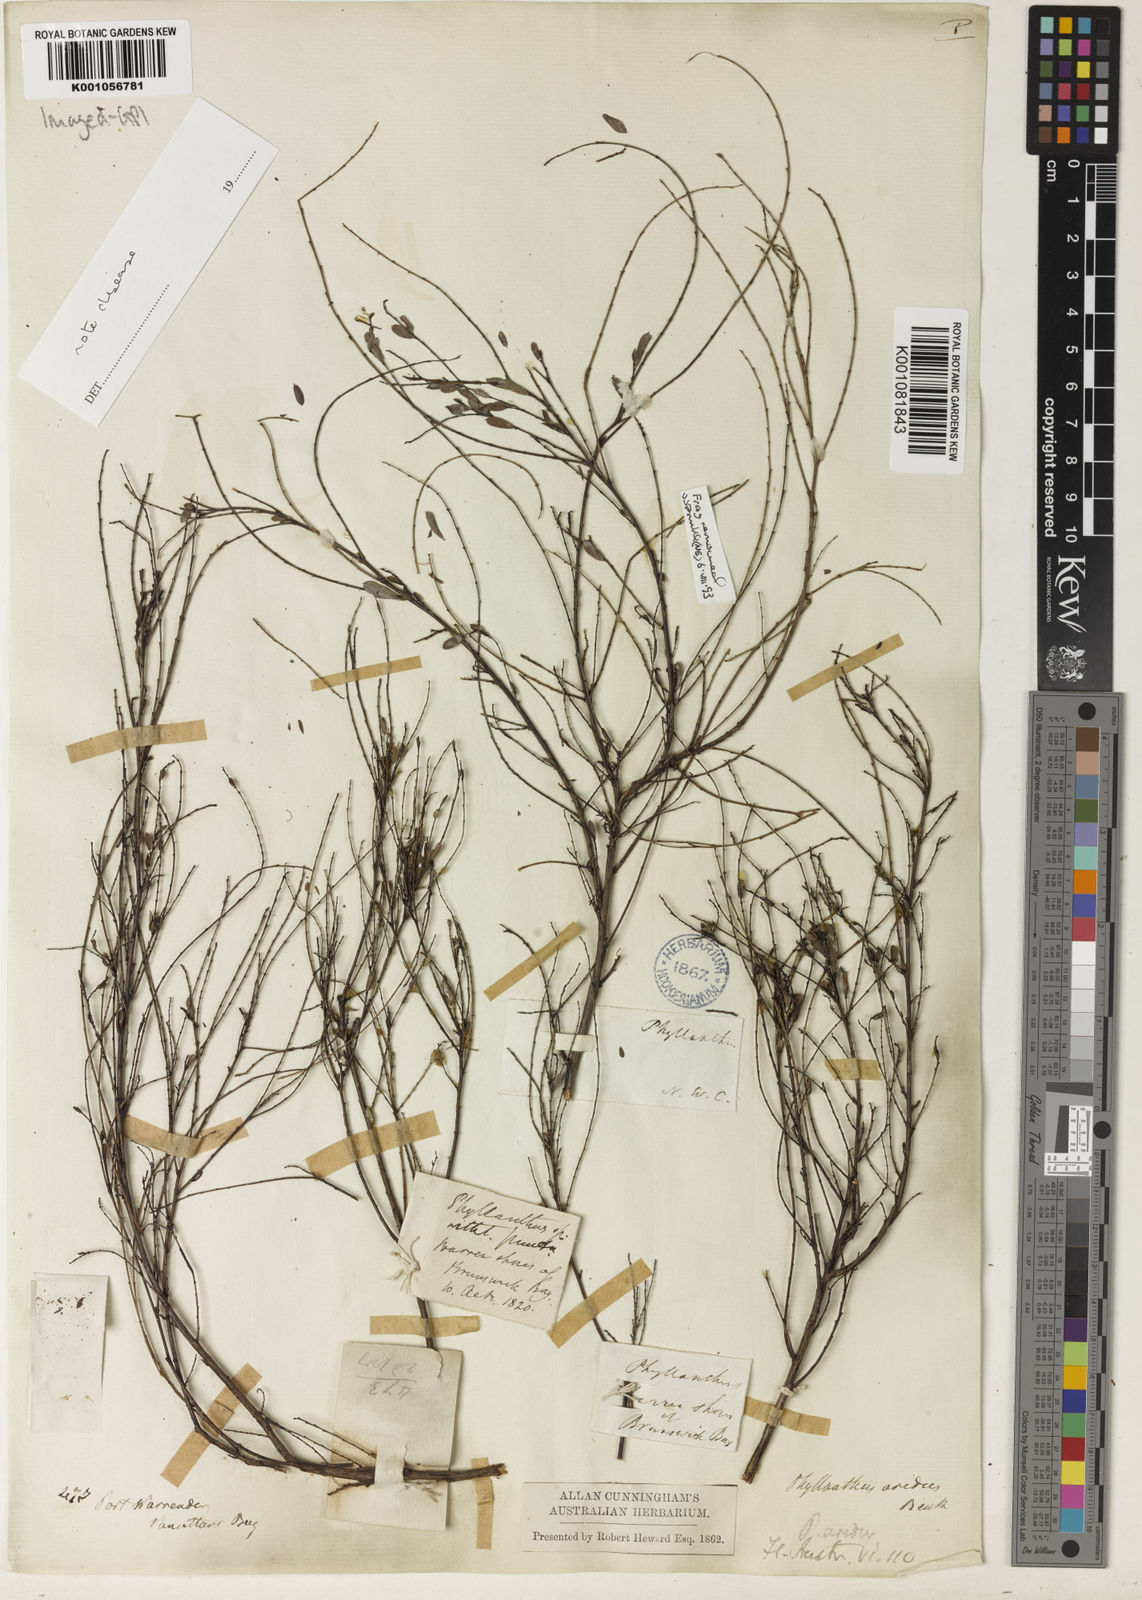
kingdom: Plantae
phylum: Tracheophyta
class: Magnoliopsida
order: Malpighiales
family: Phyllanthaceae
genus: Phyllanthus
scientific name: Phyllanthus aridus
